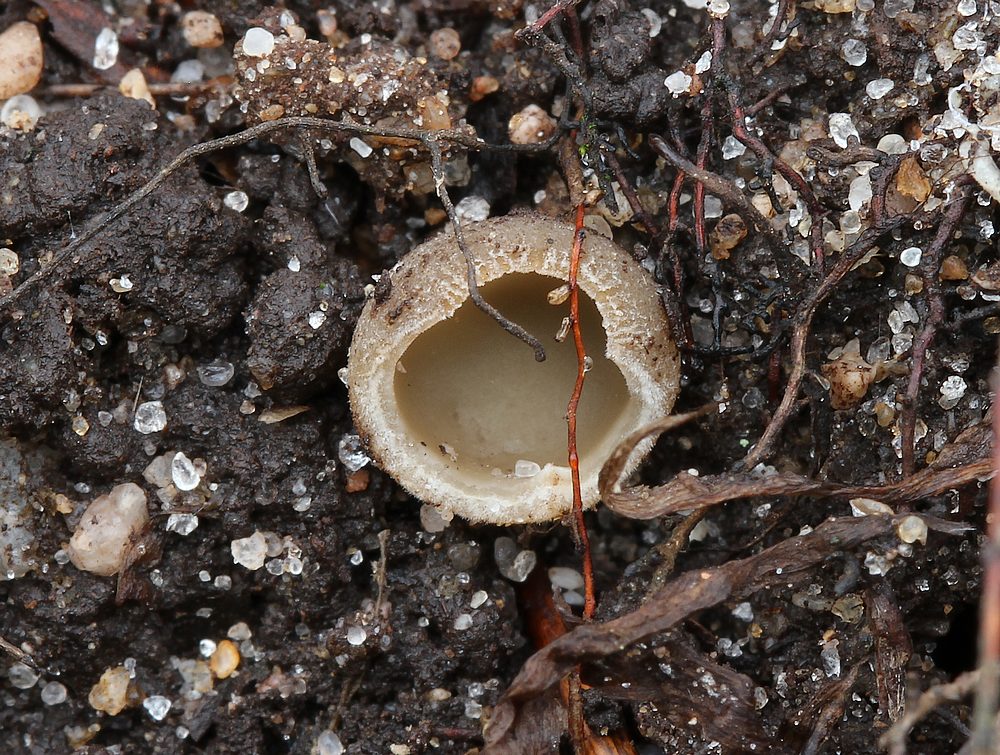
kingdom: Fungi
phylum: Ascomycota
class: Pezizomycetes
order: Pezizales
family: Pyronemataceae
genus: Tarzetta
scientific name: Tarzetta
